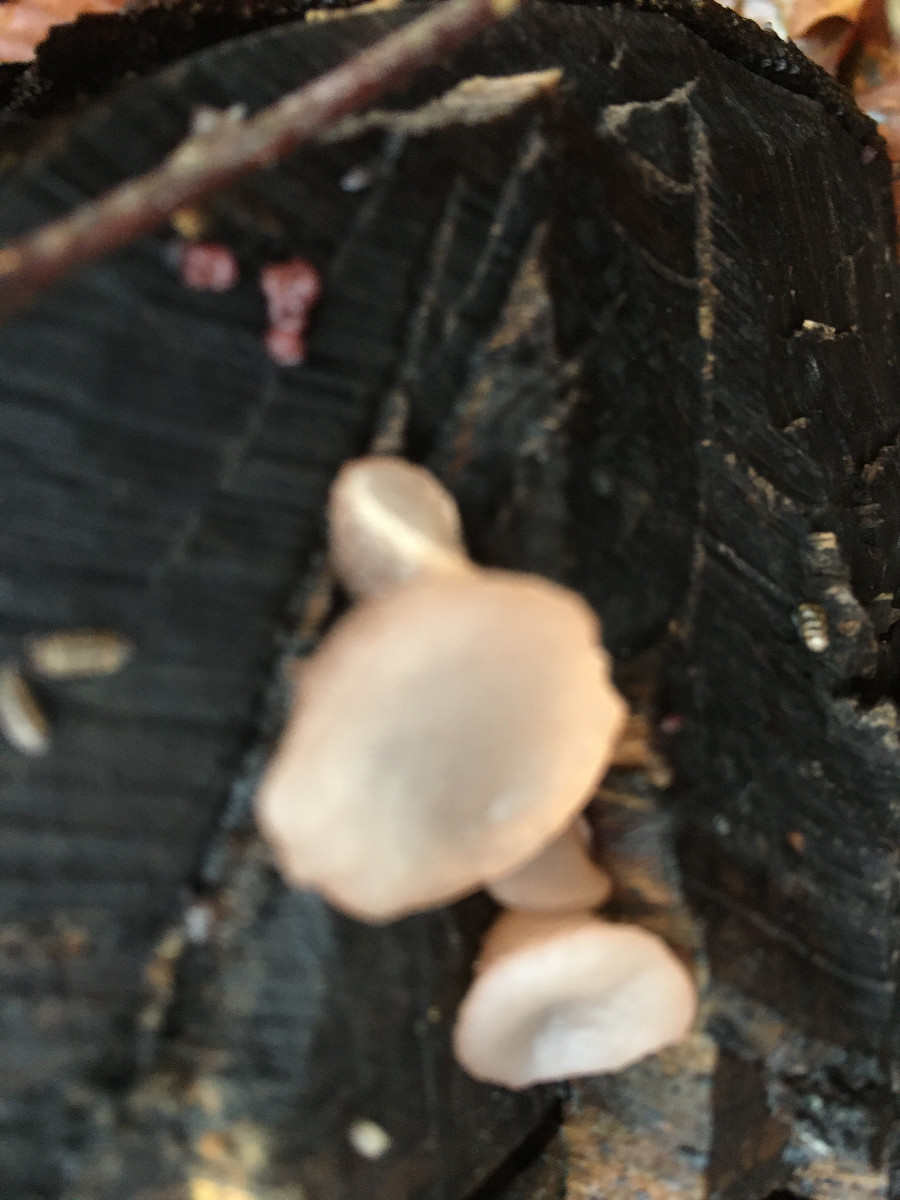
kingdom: Fungi
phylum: Ascomycota
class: Leotiomycetes
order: Helotiales
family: Gelatinodiscaceae
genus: Neobulgaria
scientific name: Neobulgaria pura
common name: bleg bævreskive
